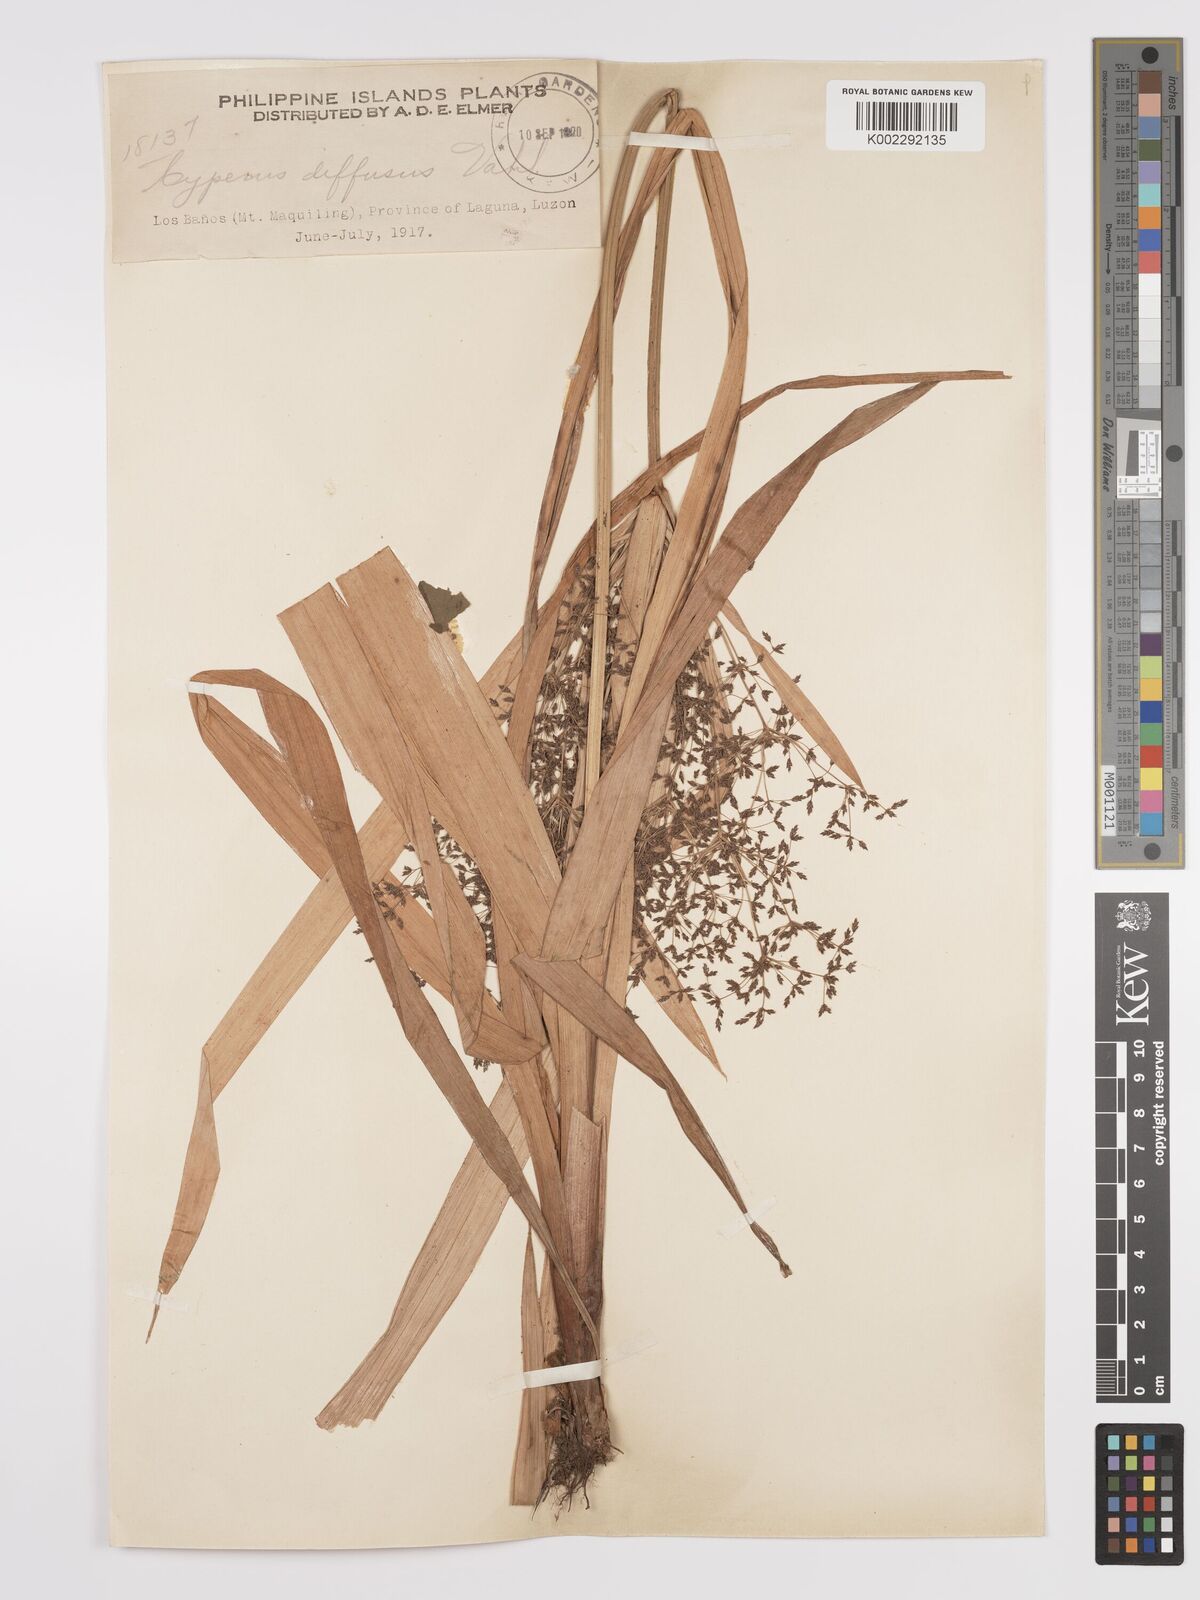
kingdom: Plantae
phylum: Tracheophyta
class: Liliopsida
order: Poales
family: Cyperaceae
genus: Cyperus
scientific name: Cyperus diffusus
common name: Dwarf umbrella grass
